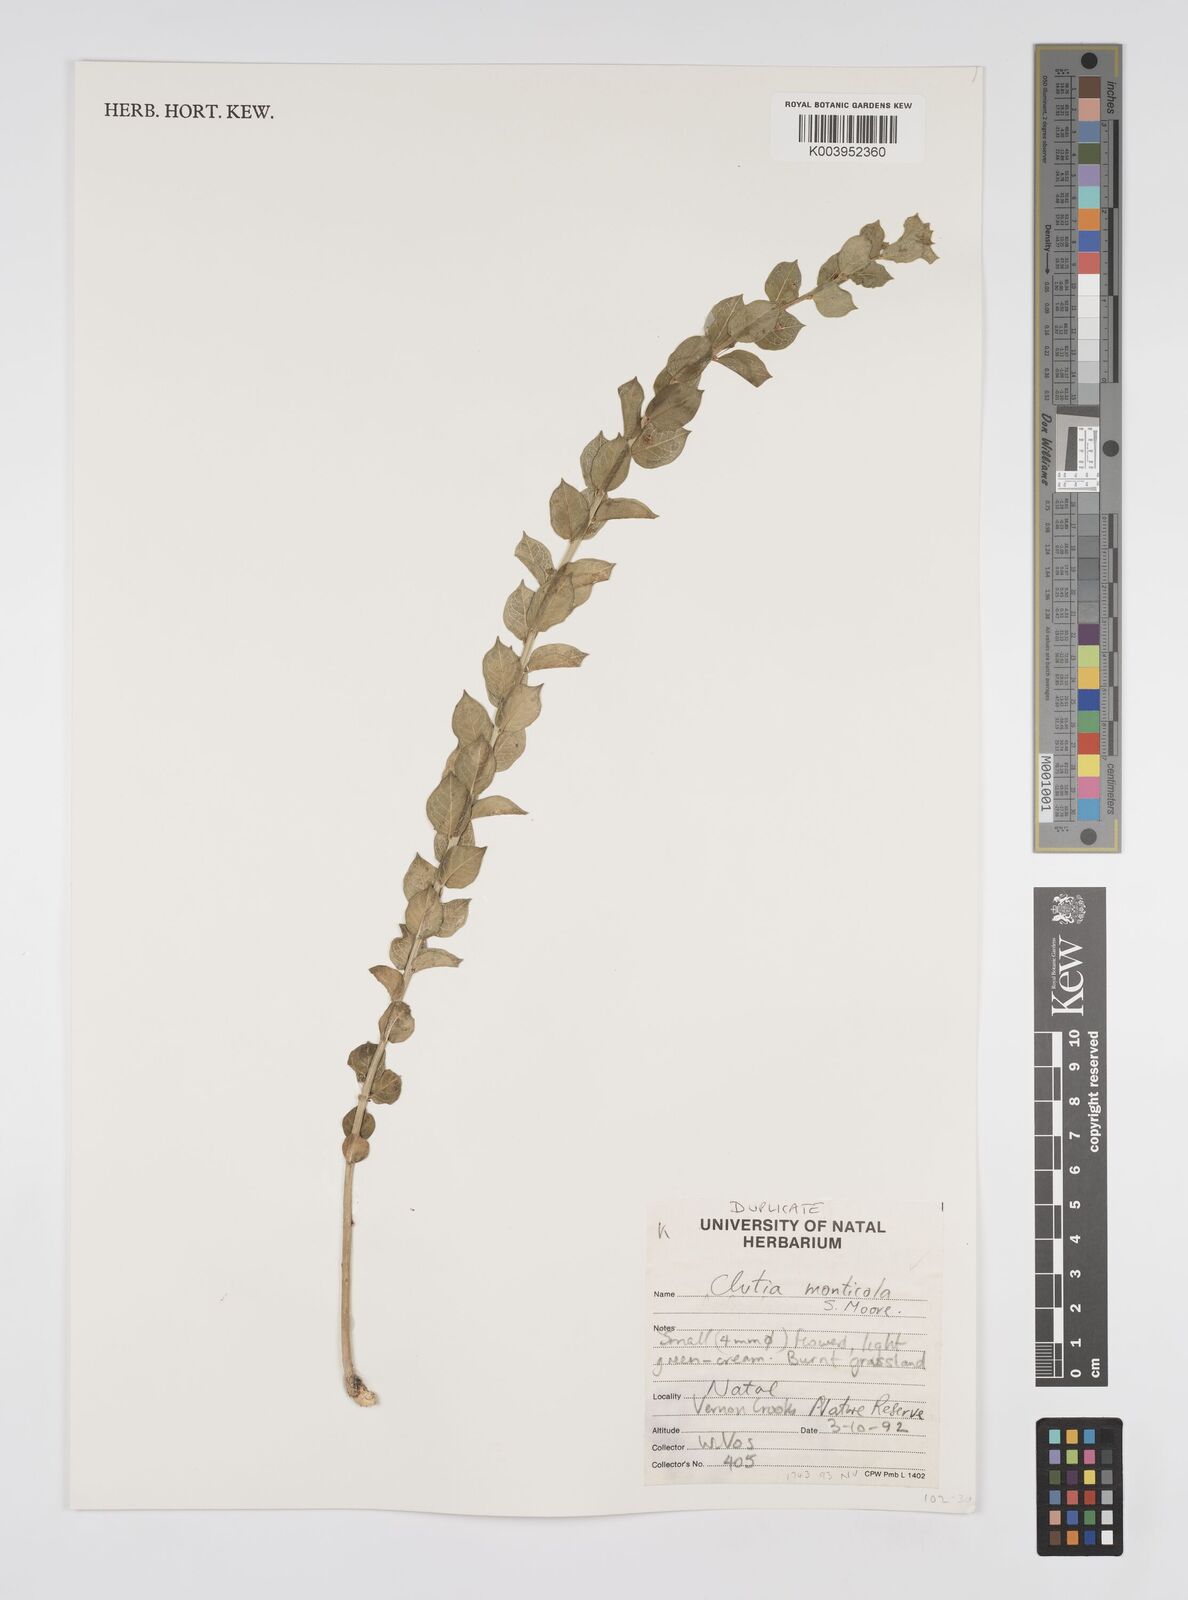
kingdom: Plantae
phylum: Tracheophyta
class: Magnoliopsida
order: Malpighiales
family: Peraceae
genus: Clutia
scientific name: Clutia monticola
